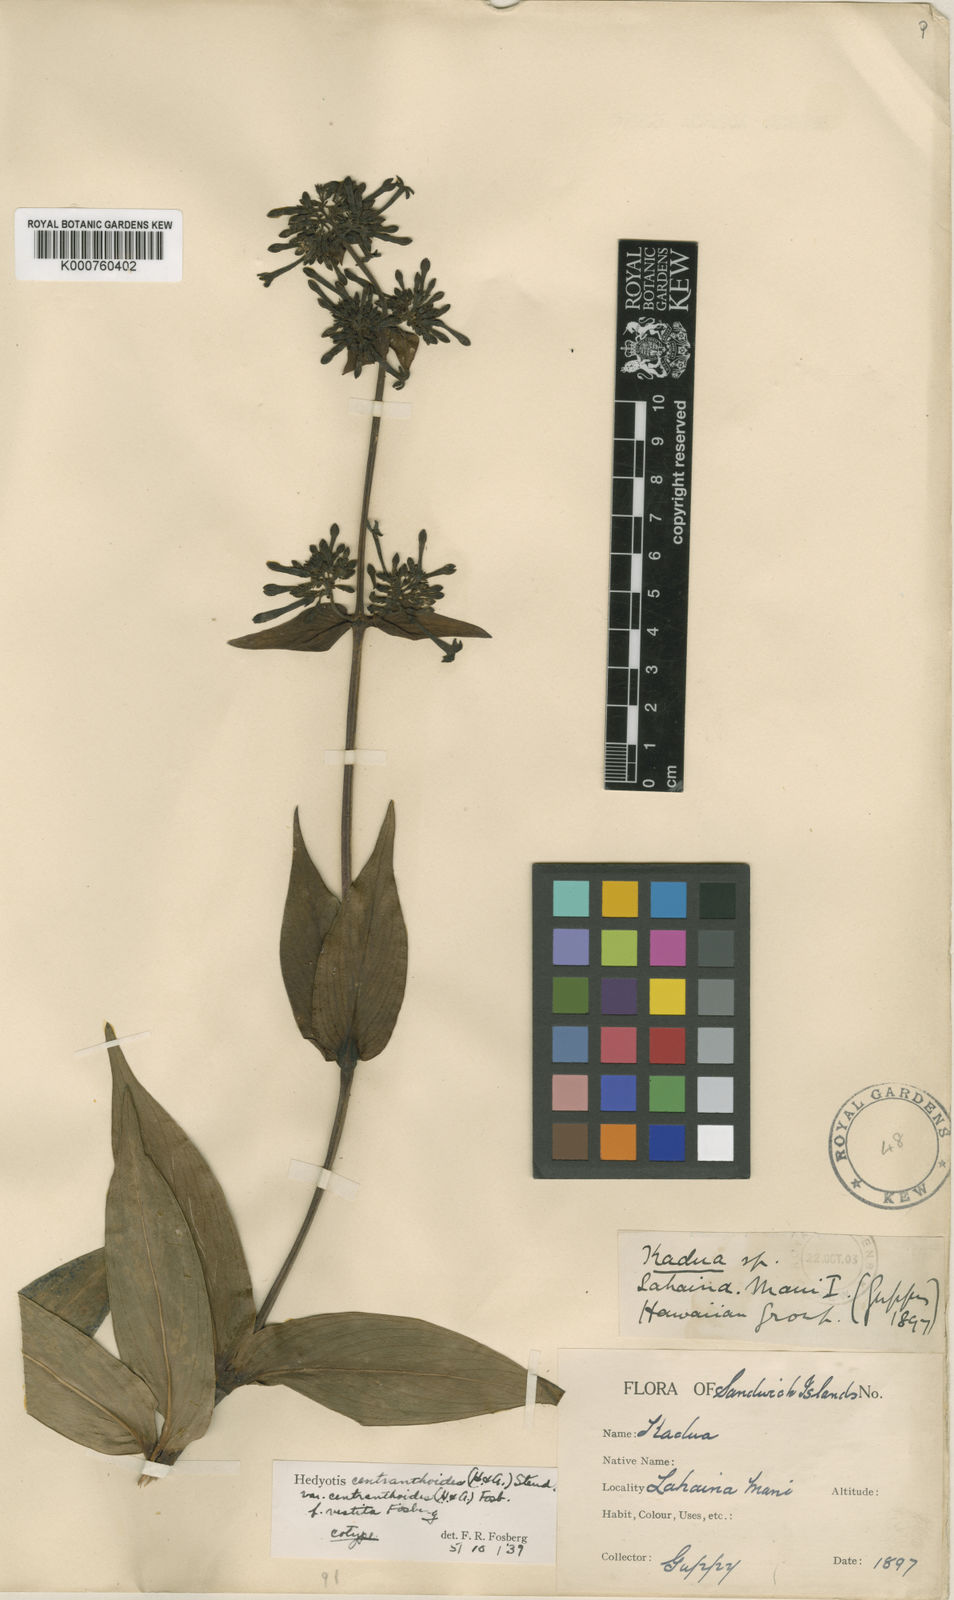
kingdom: Plantae
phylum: Tracheophyta
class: Magnoliopsida
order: Gentianales
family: Rubiaceae
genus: Kadua
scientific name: Kadua centranthoides
